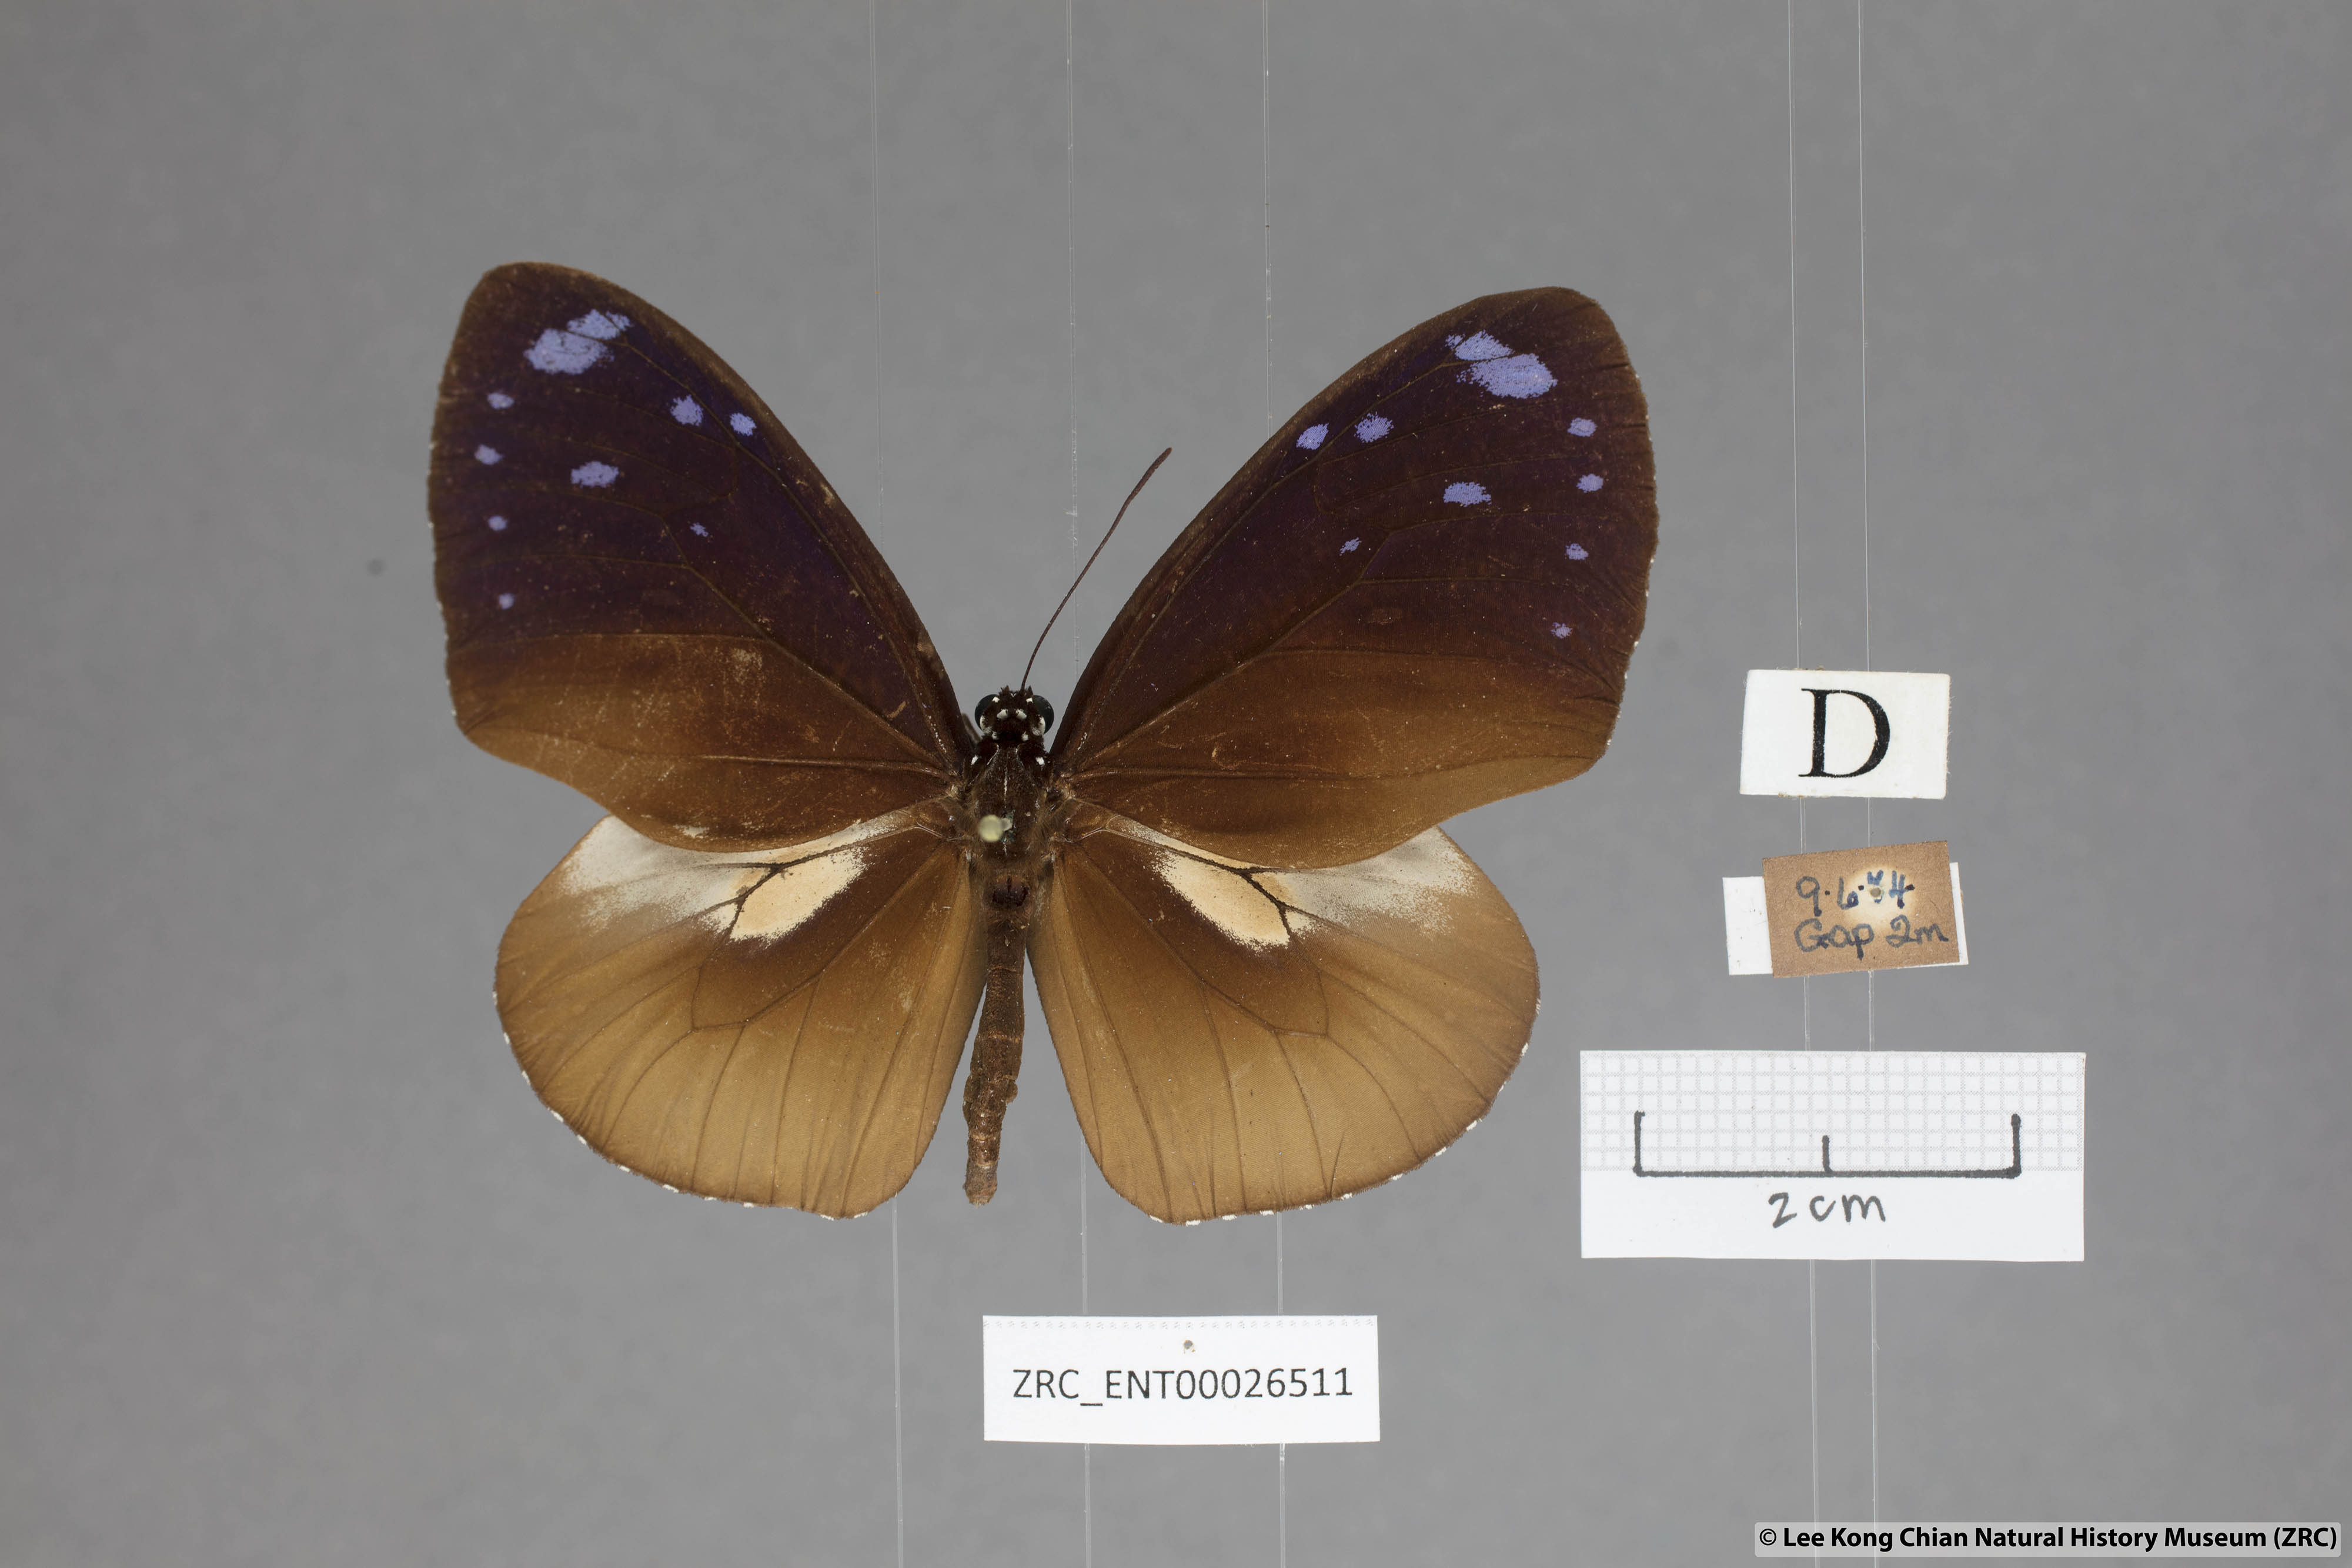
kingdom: Animalia
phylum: Arthropoda
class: Insecta
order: Lepidoptera
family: Nymphalidae
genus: Euploea
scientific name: Euploea tulliolus
